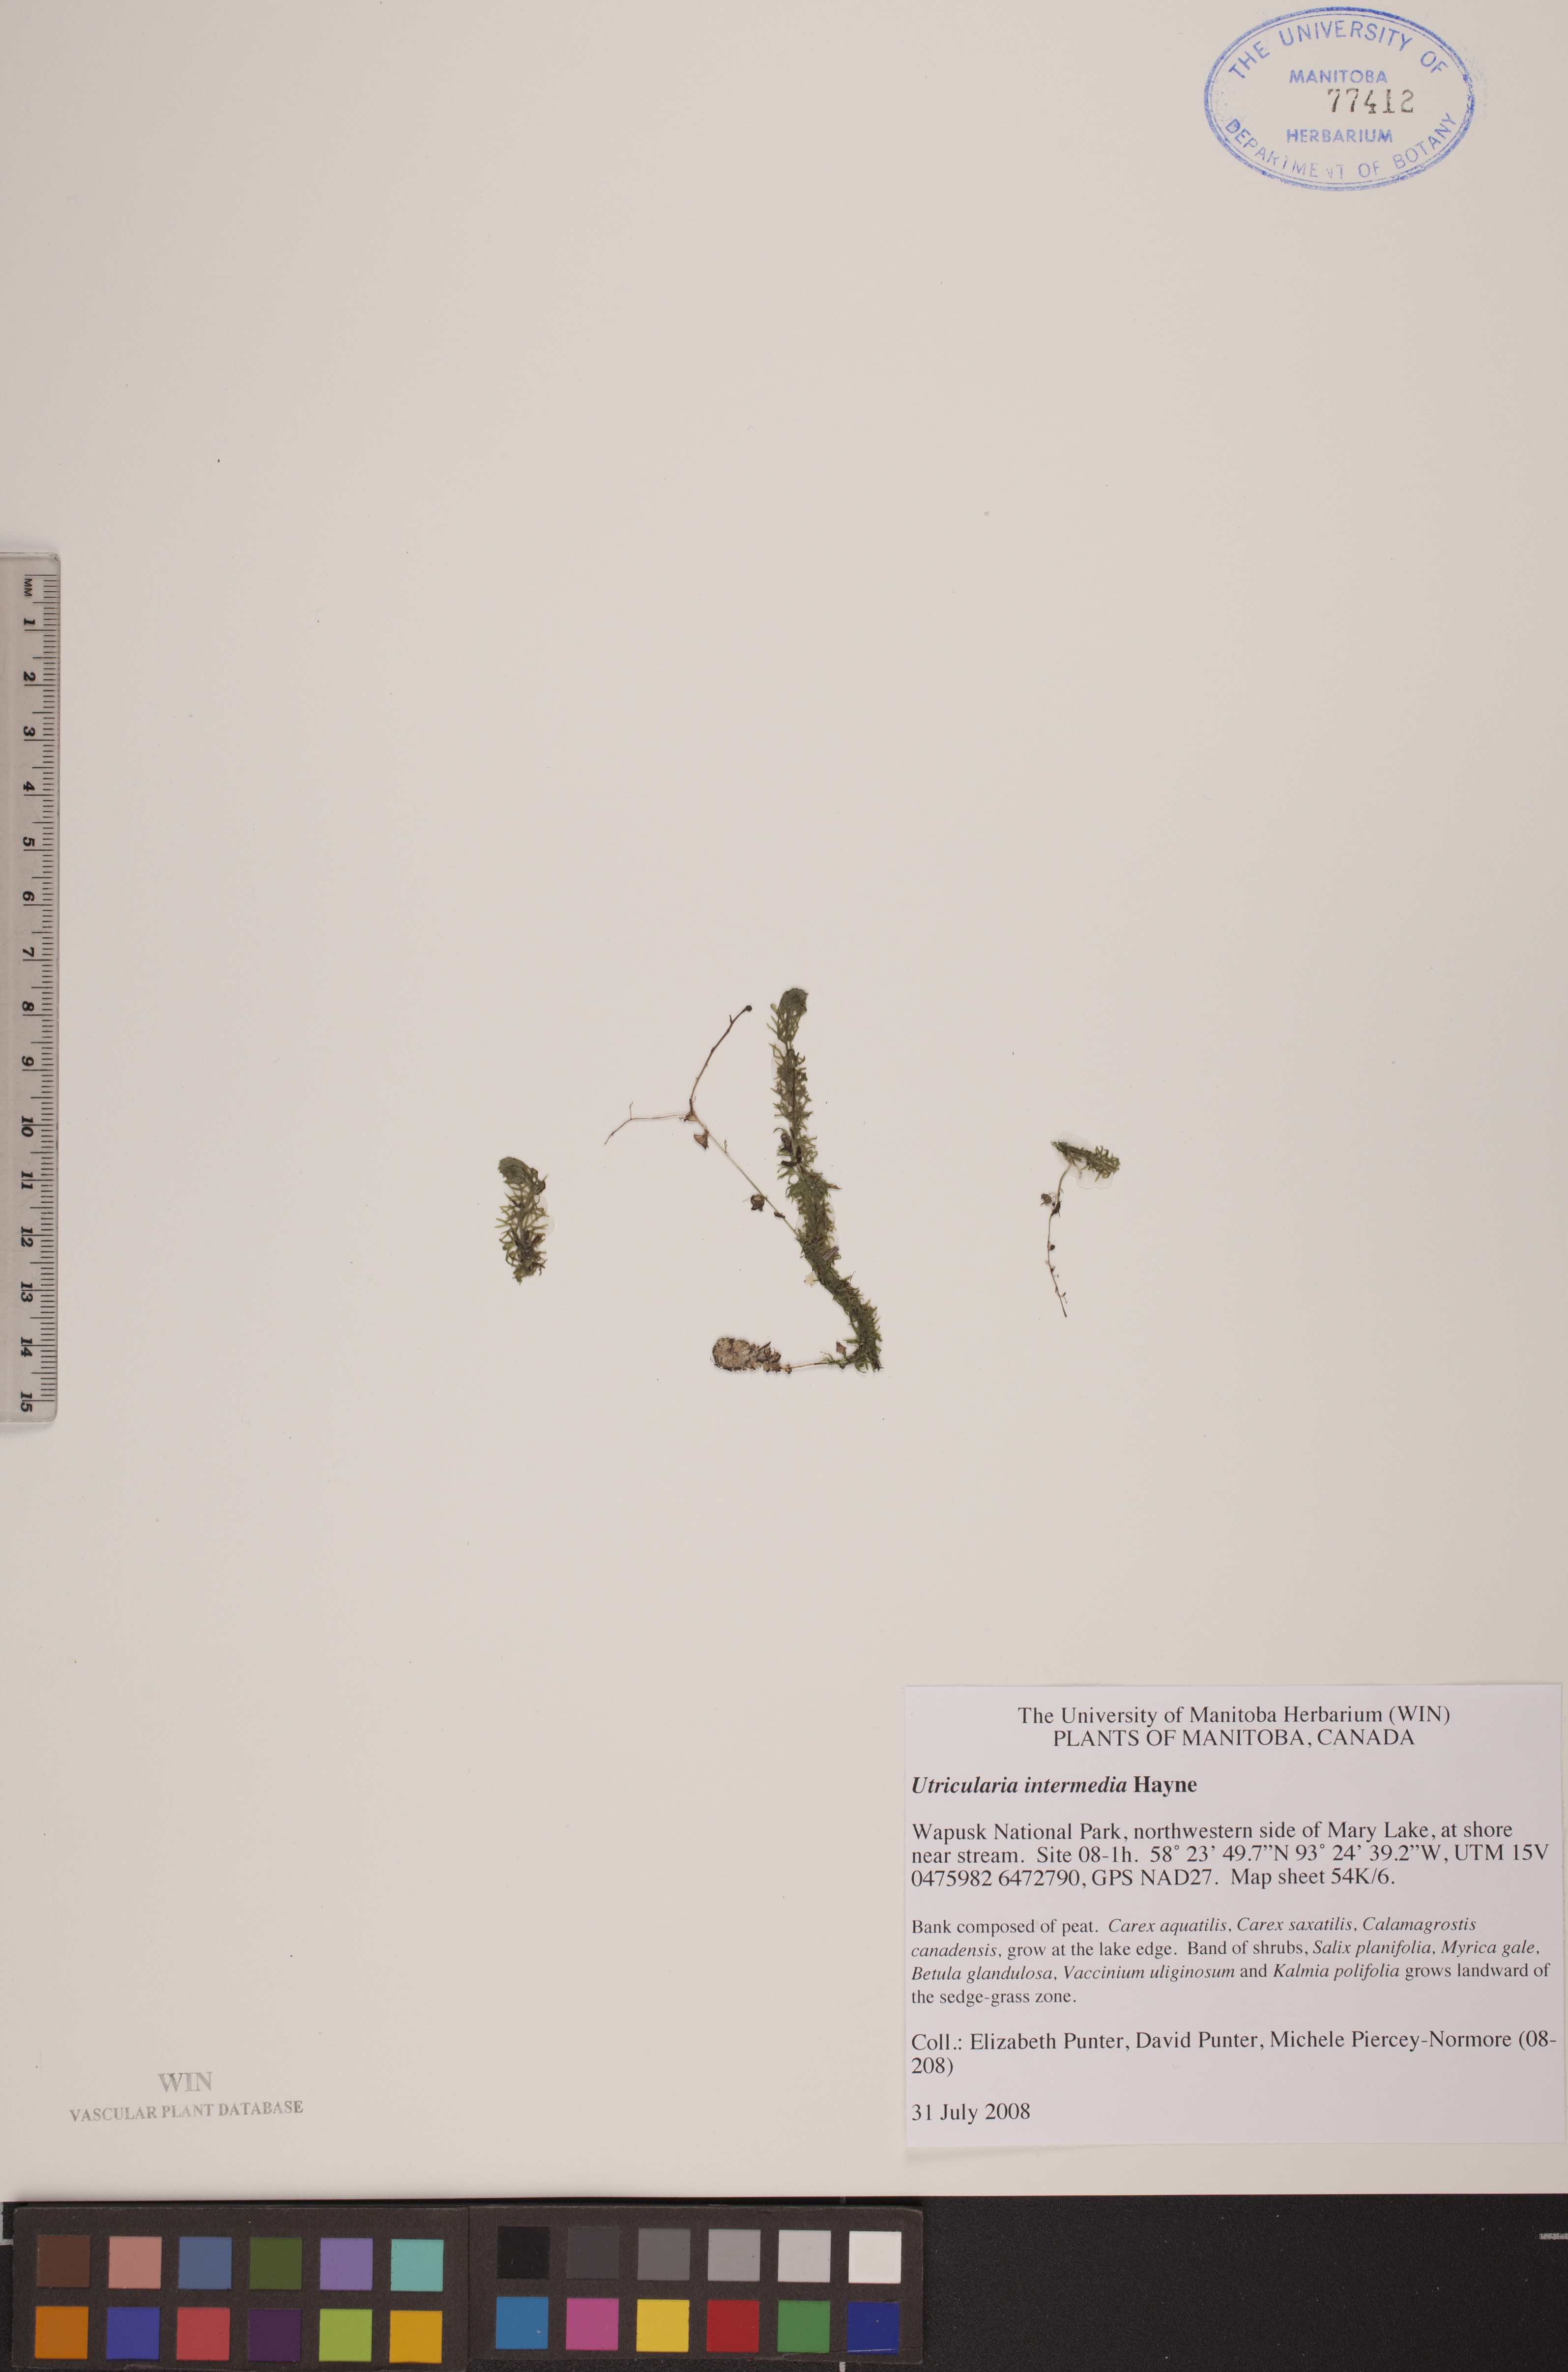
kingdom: Plantae
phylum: Tracheophyta
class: Magnoliopsida
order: Lamiales
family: Lentibulariaceae
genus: Utricularia
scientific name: Utricularia intermedia
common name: Intermediate bladderwort
